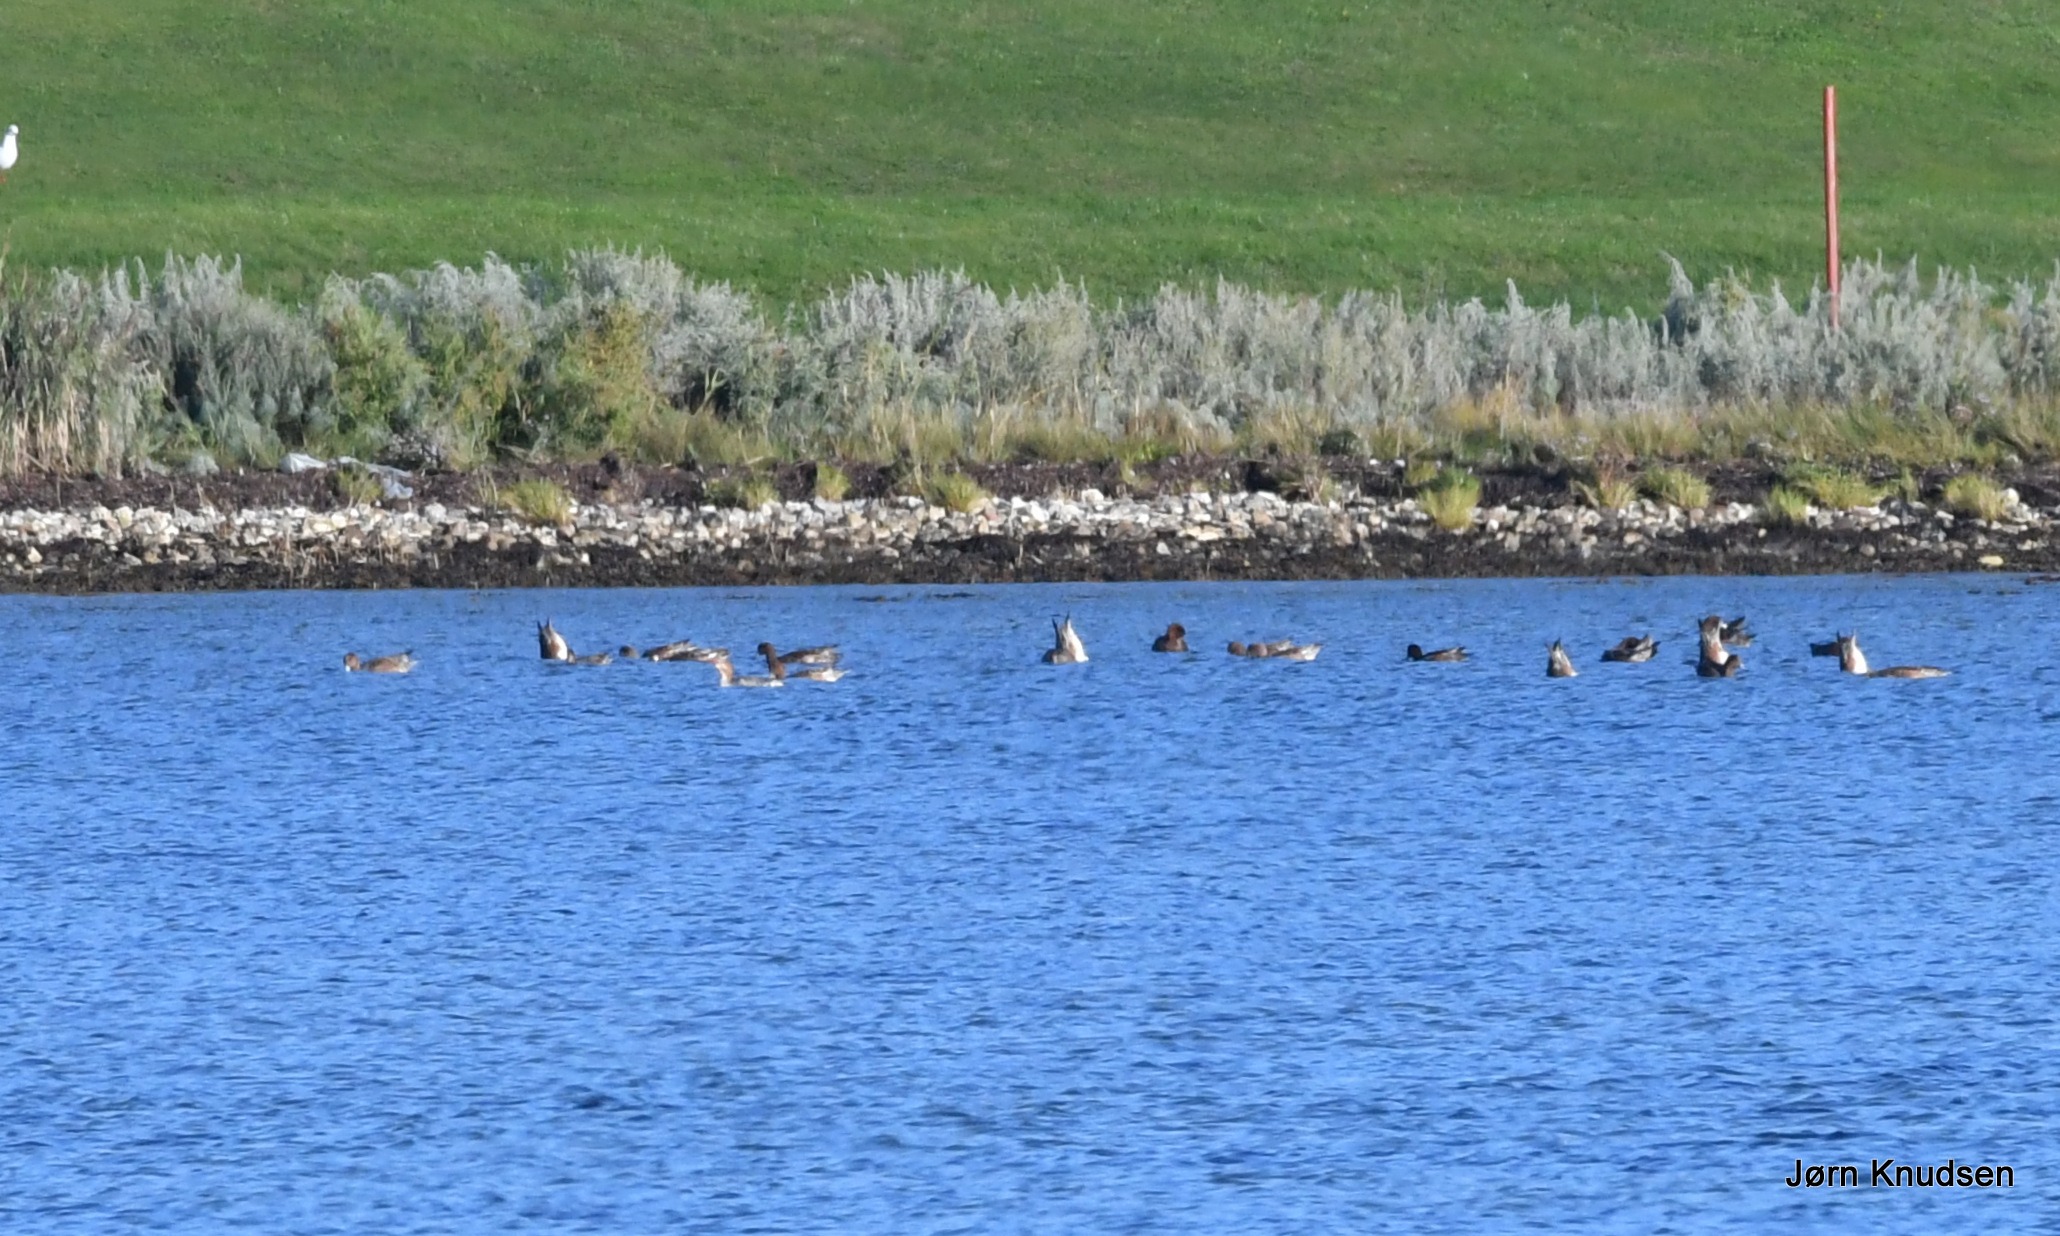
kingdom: Animalia
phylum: Chordata
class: Aves
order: Anseriformes
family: Anatidae
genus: Mareca
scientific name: Mareca penelope
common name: Pibeand
